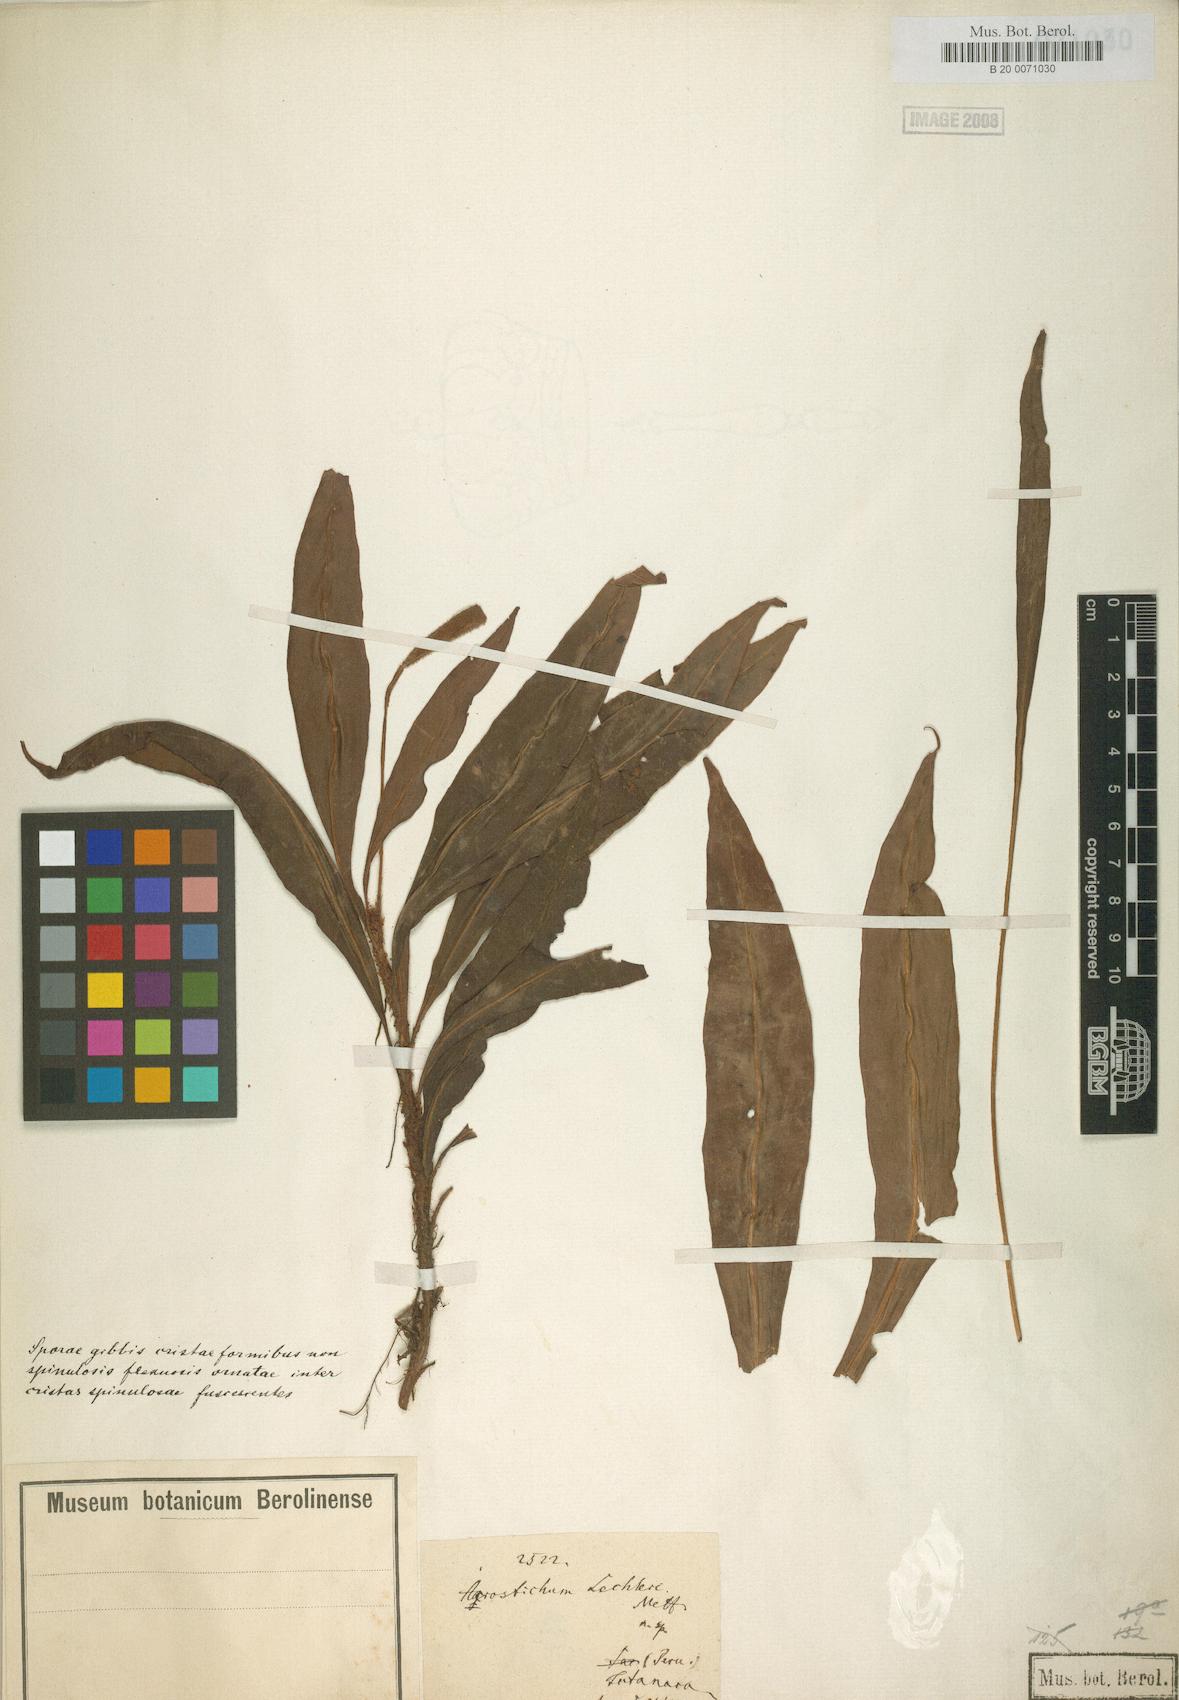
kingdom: Plantae
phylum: Tracheophyta
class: Polypodiopsida
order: Polypodiales
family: Dryopteridaceae
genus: Elaphoglossum
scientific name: Elaphoglossum lechlerianum
